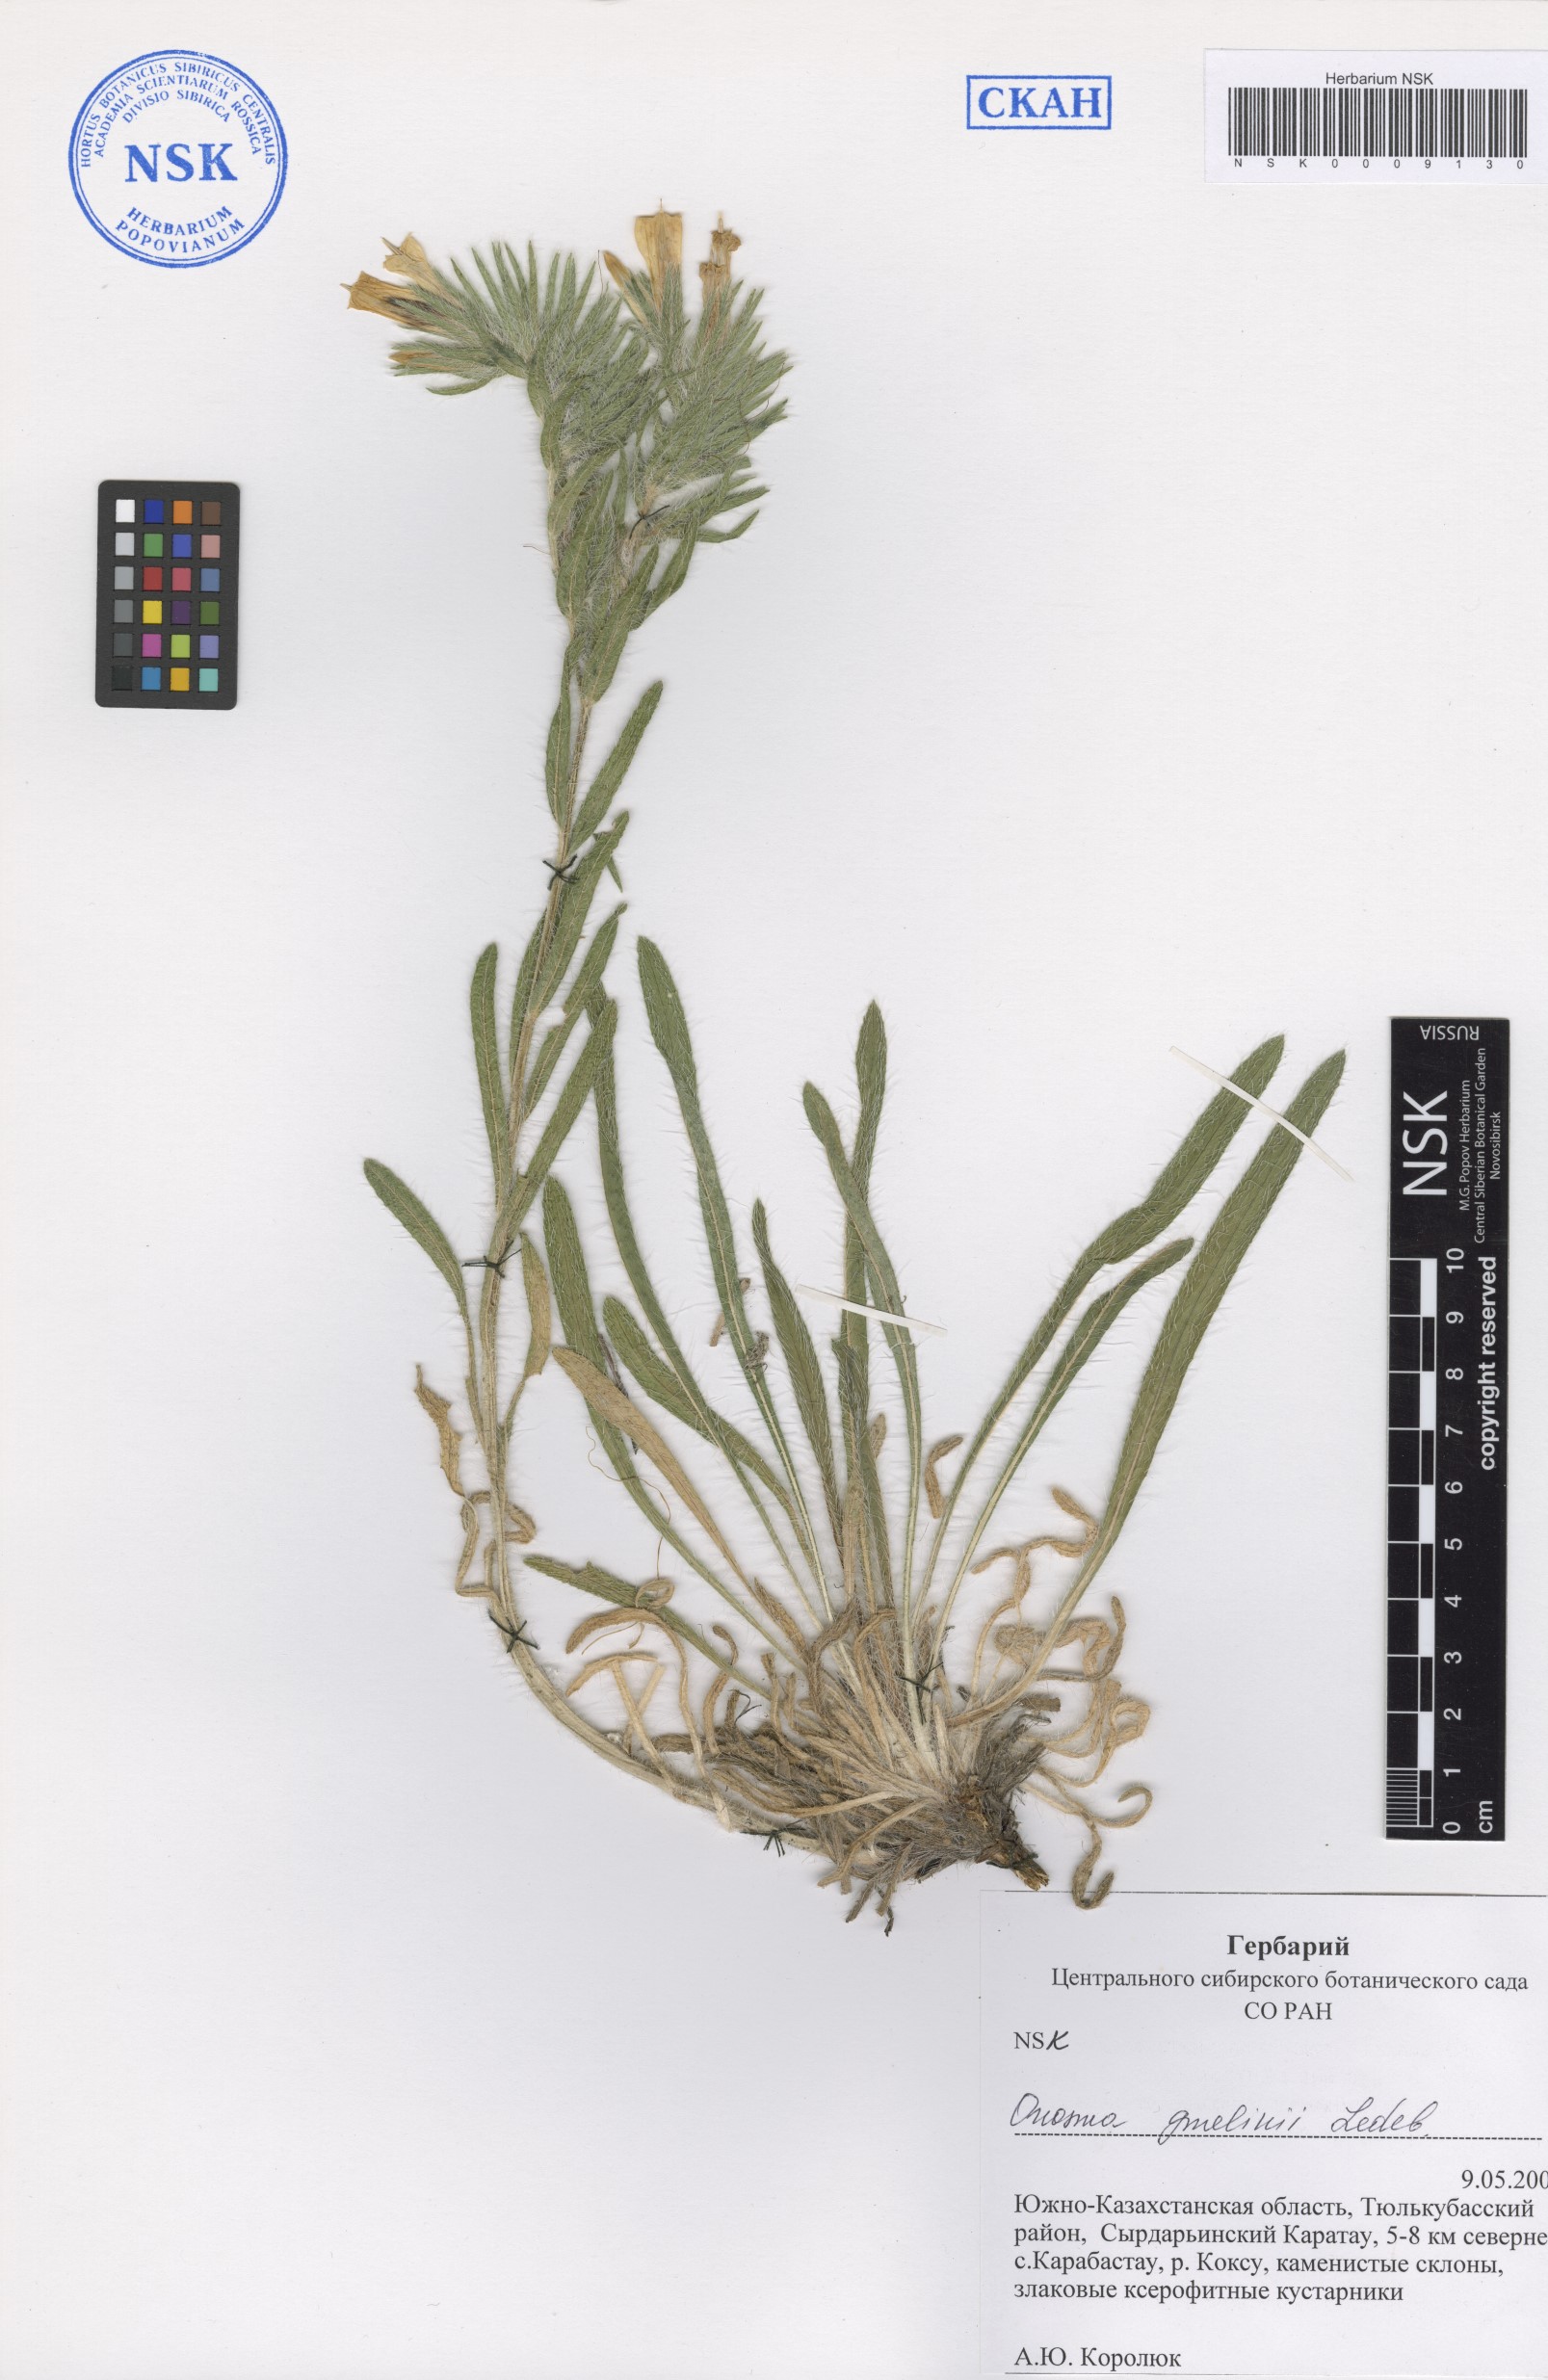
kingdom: Plantae
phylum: Tracheophyta
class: Magnoliopsida
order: Boraginales
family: Boraginaceae
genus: Onosma
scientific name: Onosma gmelinii
